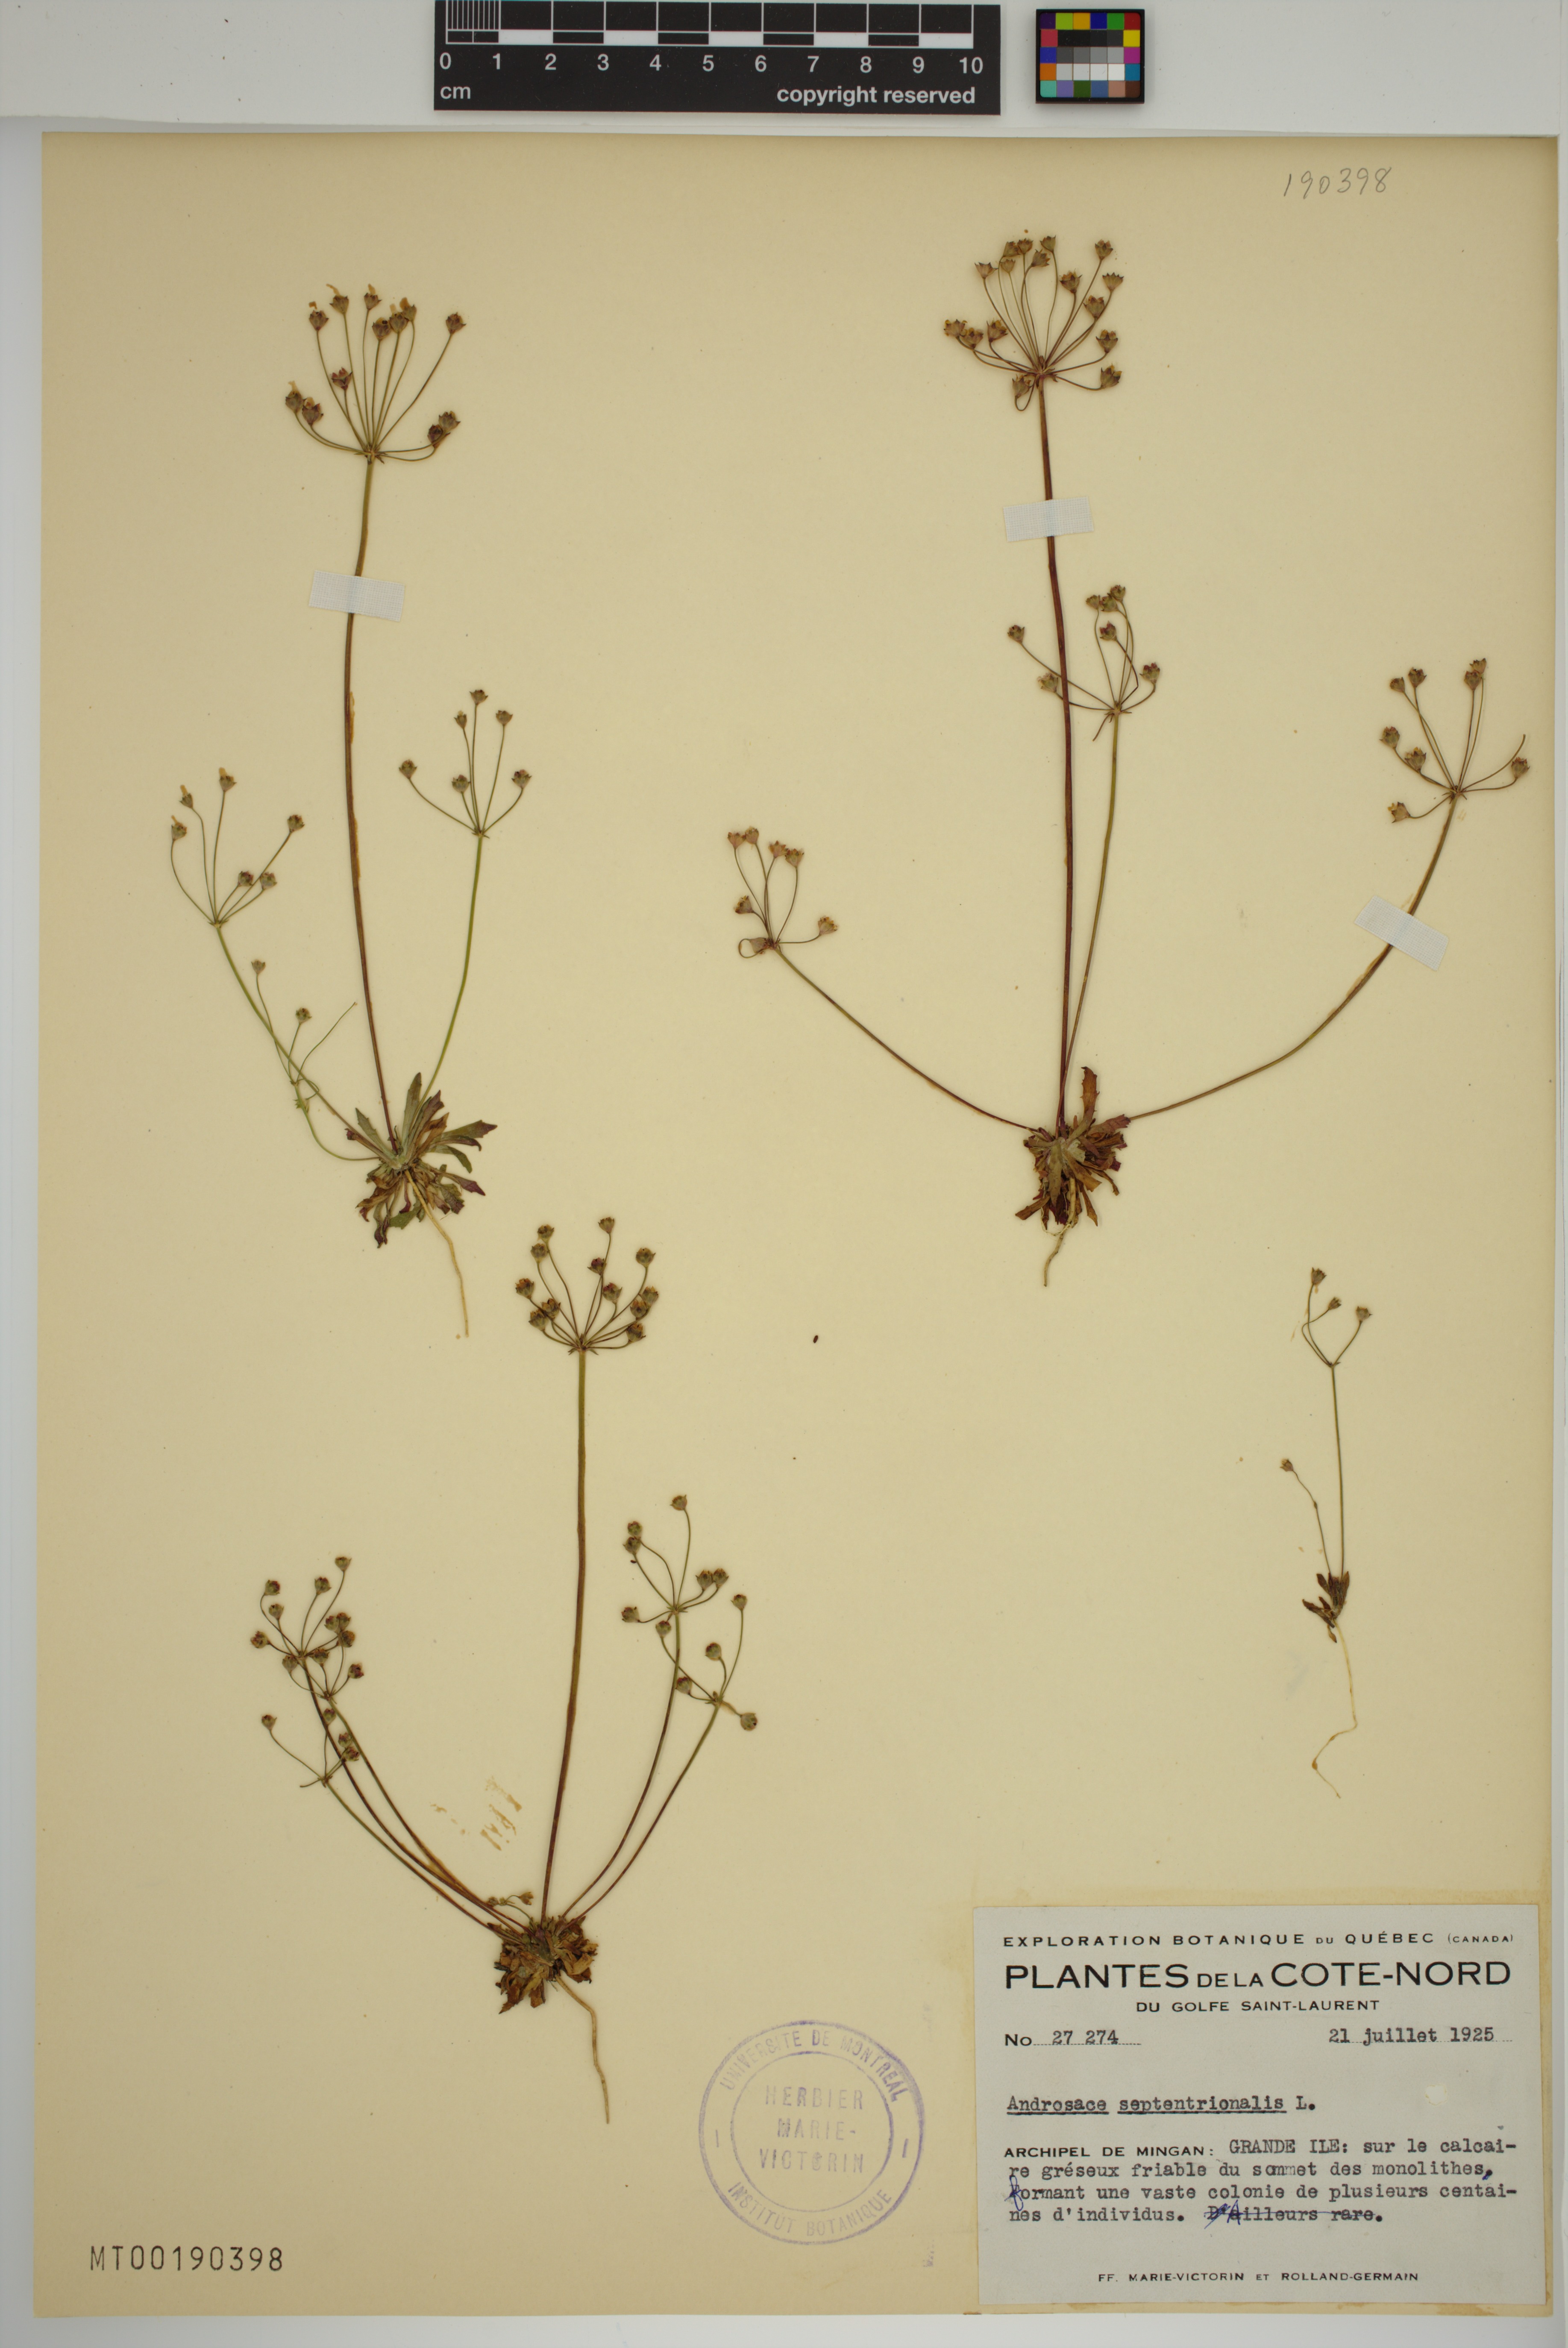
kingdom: Plantae
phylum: Tracheophyta
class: Magnoliopsida
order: Ericales
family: Primulaceae
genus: Androsace
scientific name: Androsace septentrionalis
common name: Hairy northern fairy-candelabra
